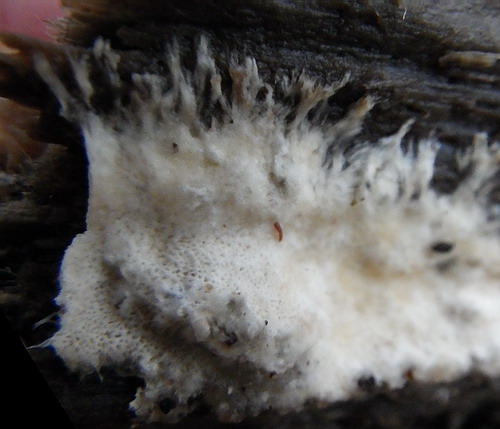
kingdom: Fungi
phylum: Basidiomycota
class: Agaricomycetes
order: Agaricales
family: Porotheleaceae
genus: Porotheleum
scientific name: Porotheleum fimbriatum
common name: poreskål
